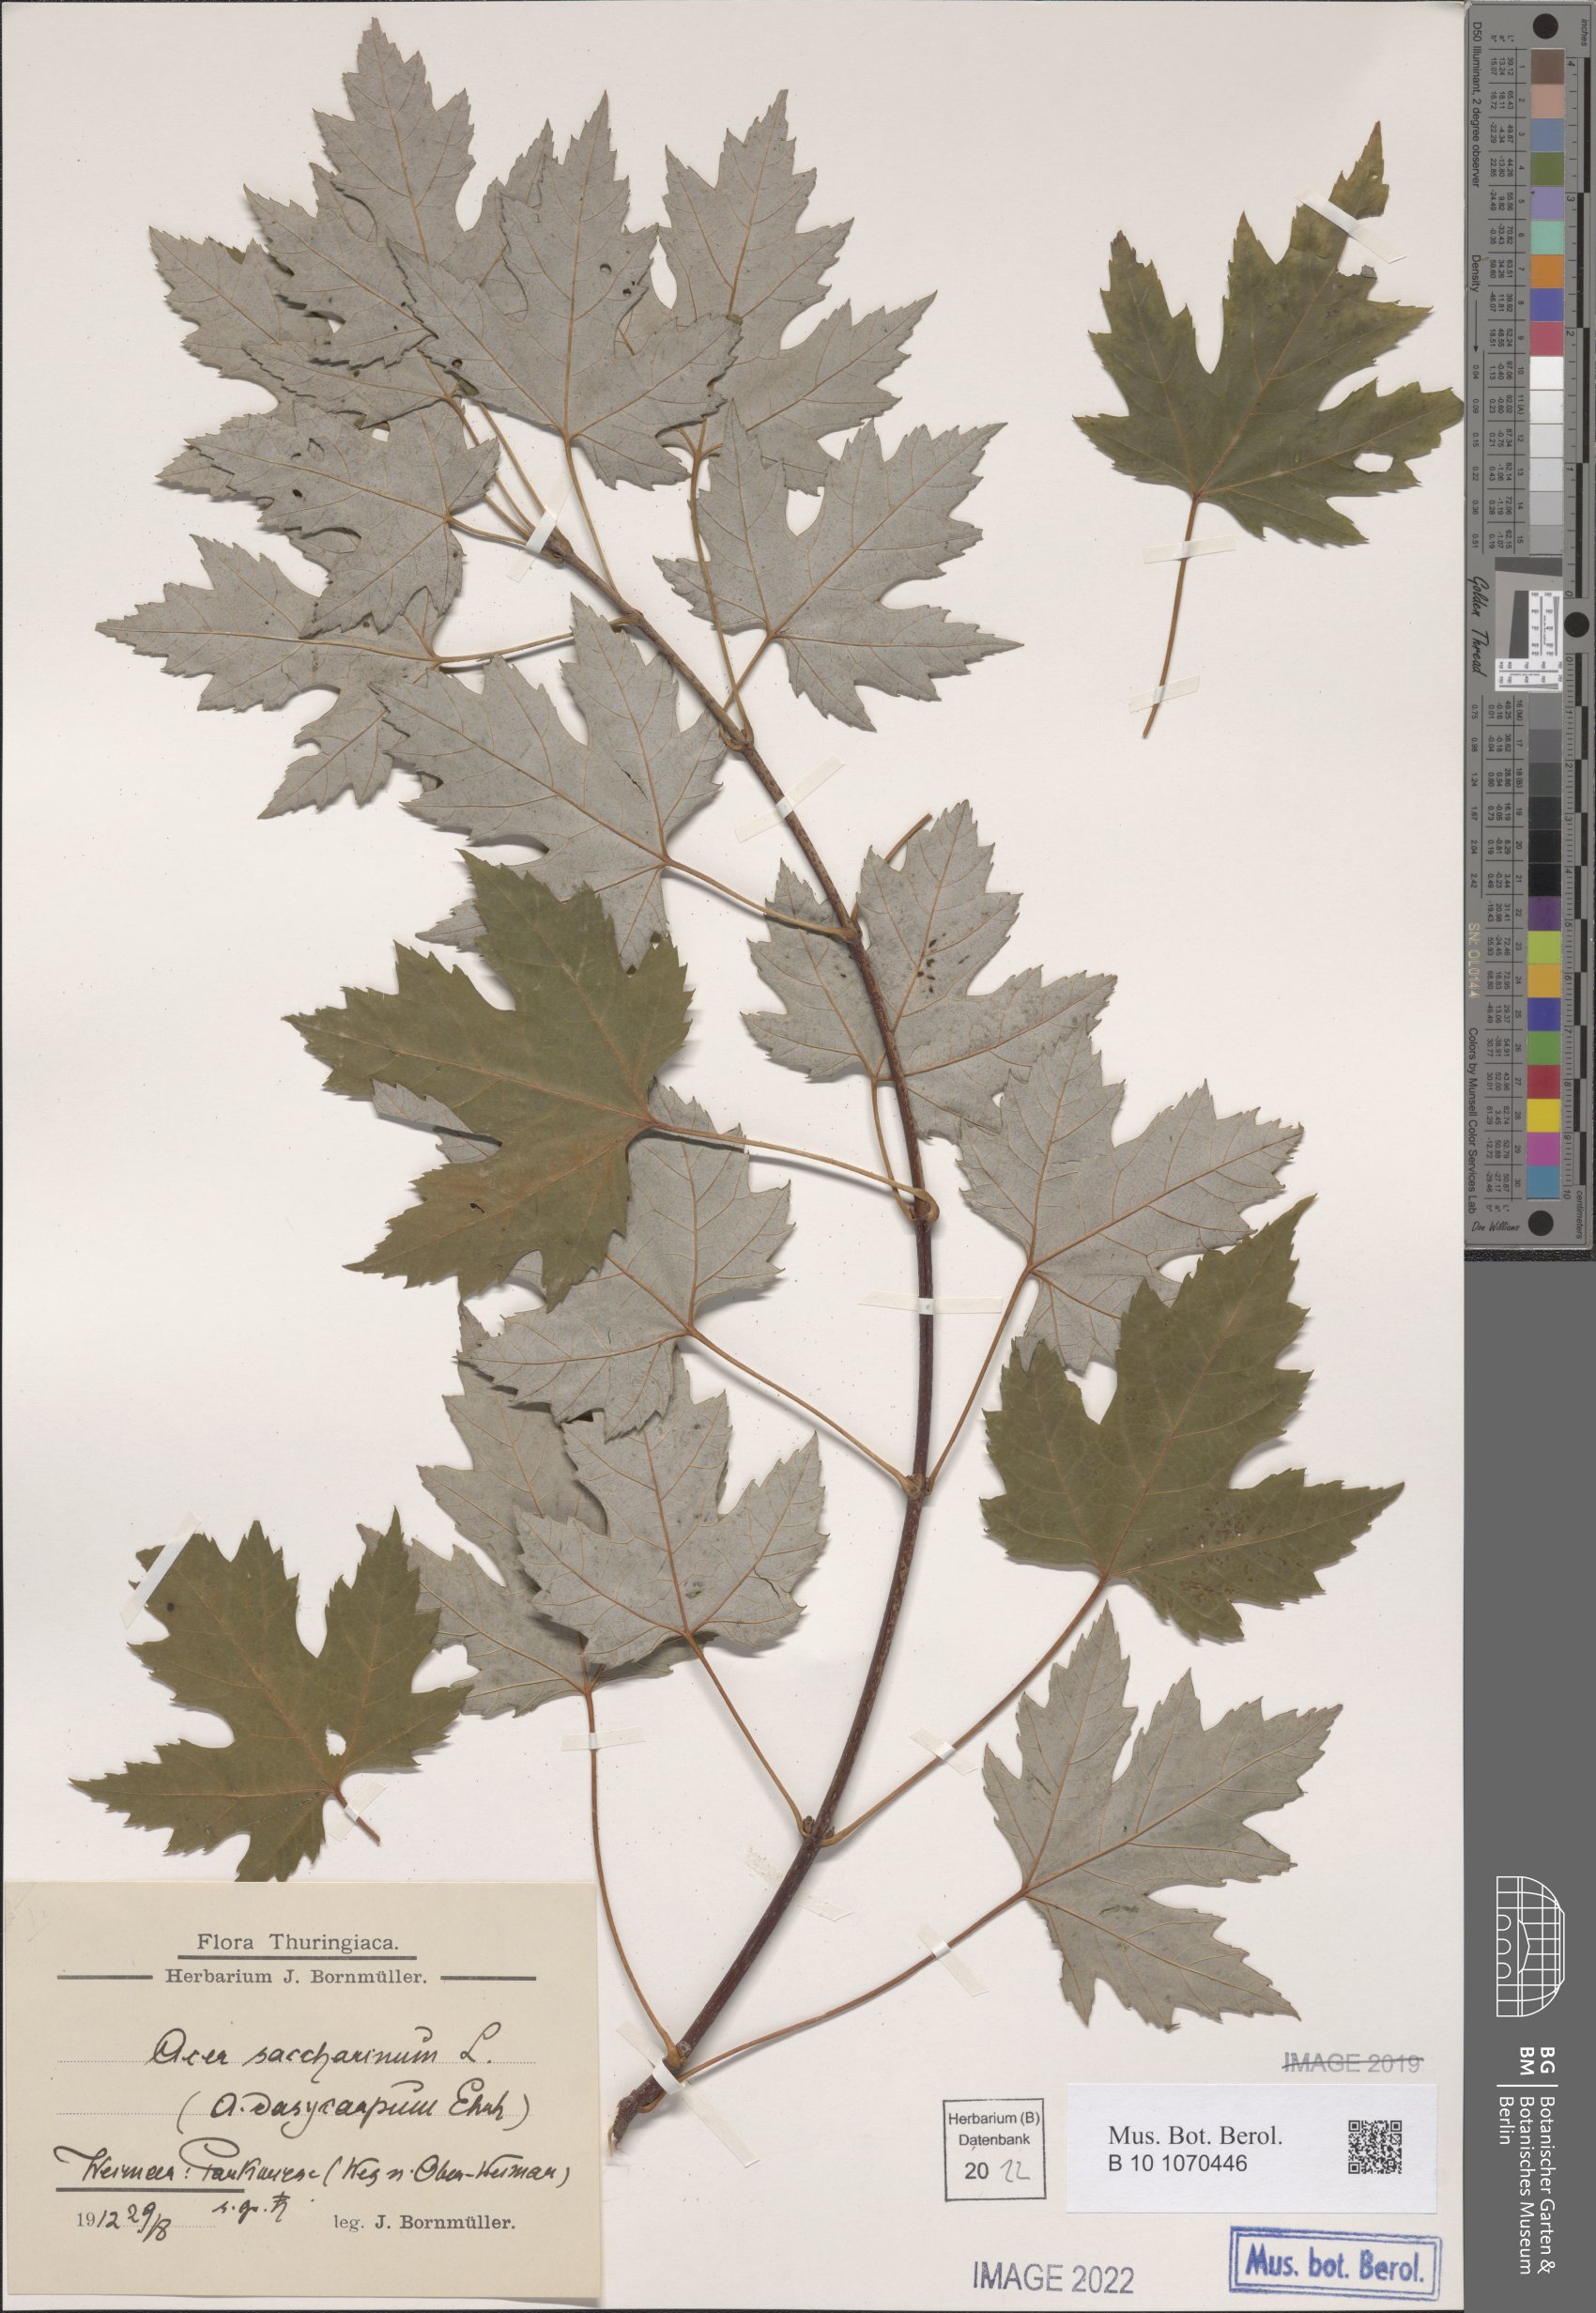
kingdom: Plantae
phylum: Tracheophyta
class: Magnoliopsida
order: Sapindales
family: Sapindaceae
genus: Acer
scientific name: Acer saccharinum
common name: Silver maple
